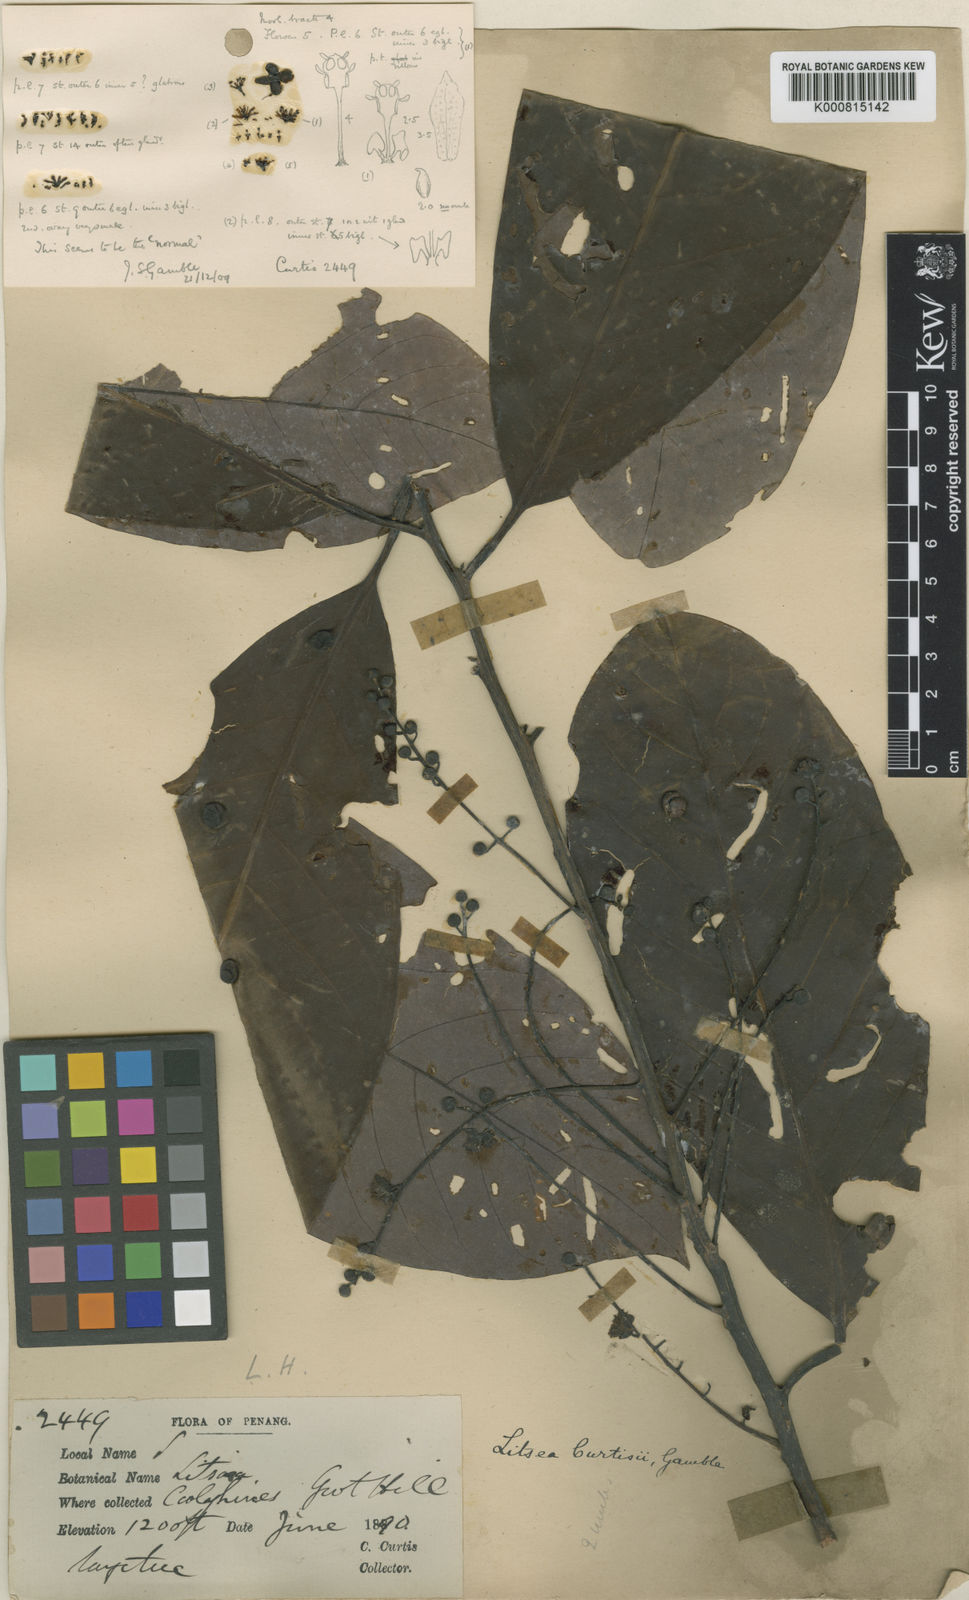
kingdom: Plantae
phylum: Tracheophyta
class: Magnoliopsida
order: Laurales
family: Lauraceae
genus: Litsea
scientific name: Litsea curtisii
